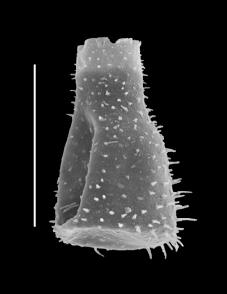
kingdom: Protozoa
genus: Belonechitina
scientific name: Belonechitina
